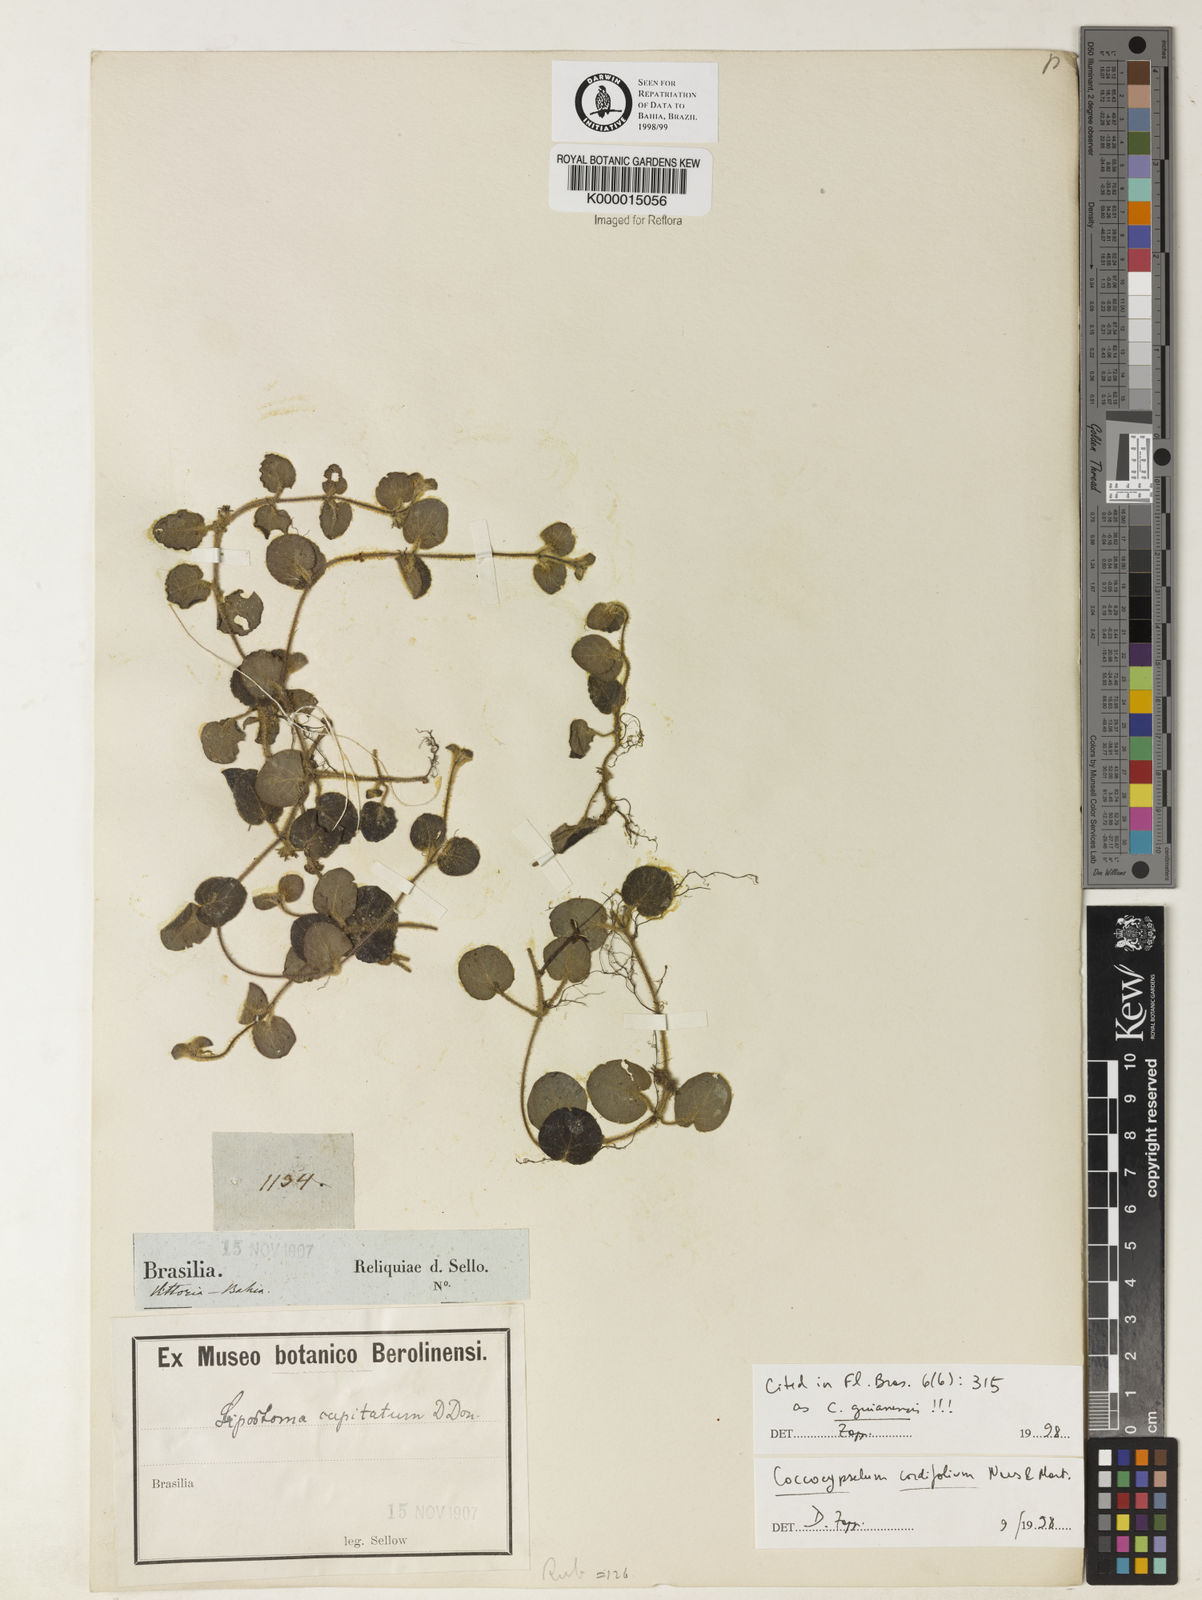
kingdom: Plantae
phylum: Tracheophyta
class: Magnoliopsida
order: Gentianales
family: Rubiaceae
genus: Coccocypselum
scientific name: Coccocypselum cordifolium
